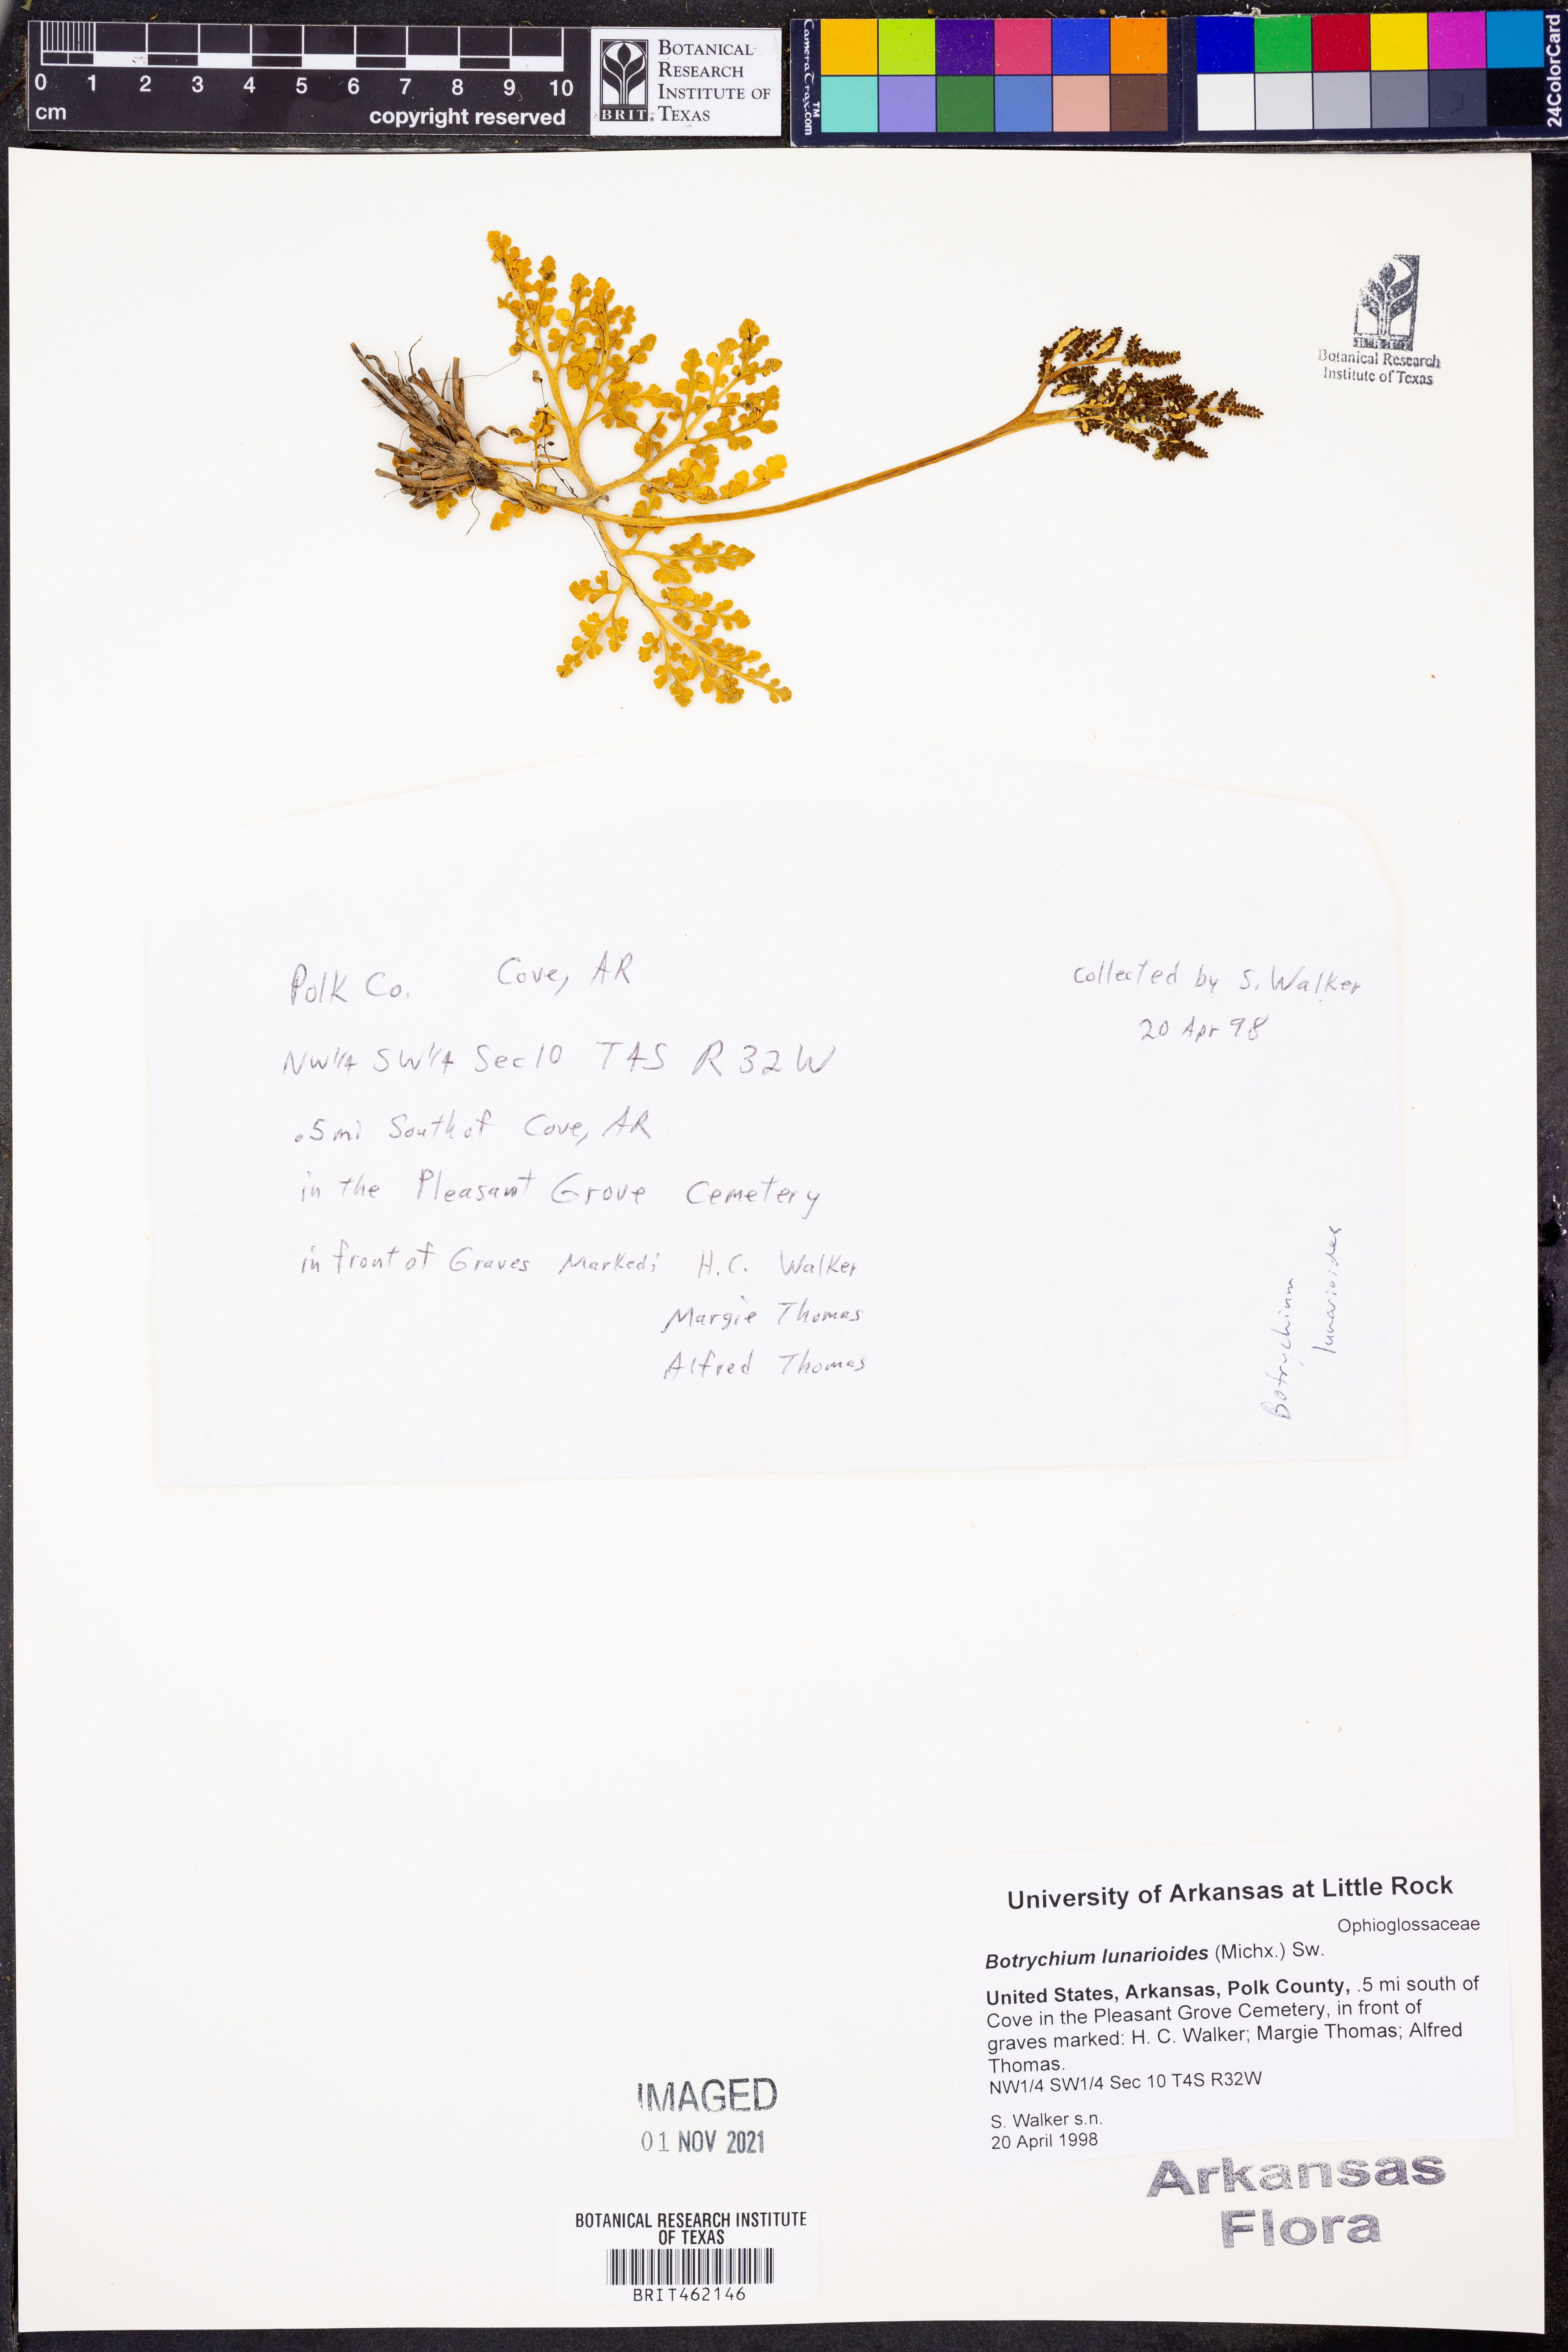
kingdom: Plantae
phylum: Tracheophyta
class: Polypodiopsida
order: Ophioglossales
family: Ophioglossaceae
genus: Sceptridium
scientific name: Sceptridium lunarioides
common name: Prostrate grapefern
